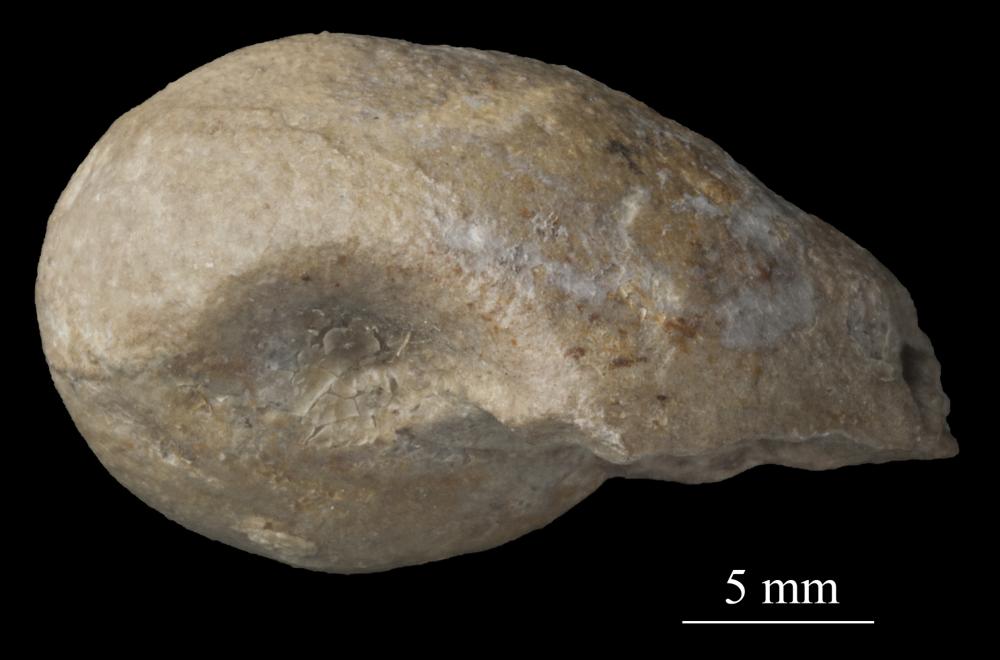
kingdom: Animalia
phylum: Mollusca
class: Gastropoda
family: Bellerophontidae
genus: Bellerophon
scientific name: Bellerophon
